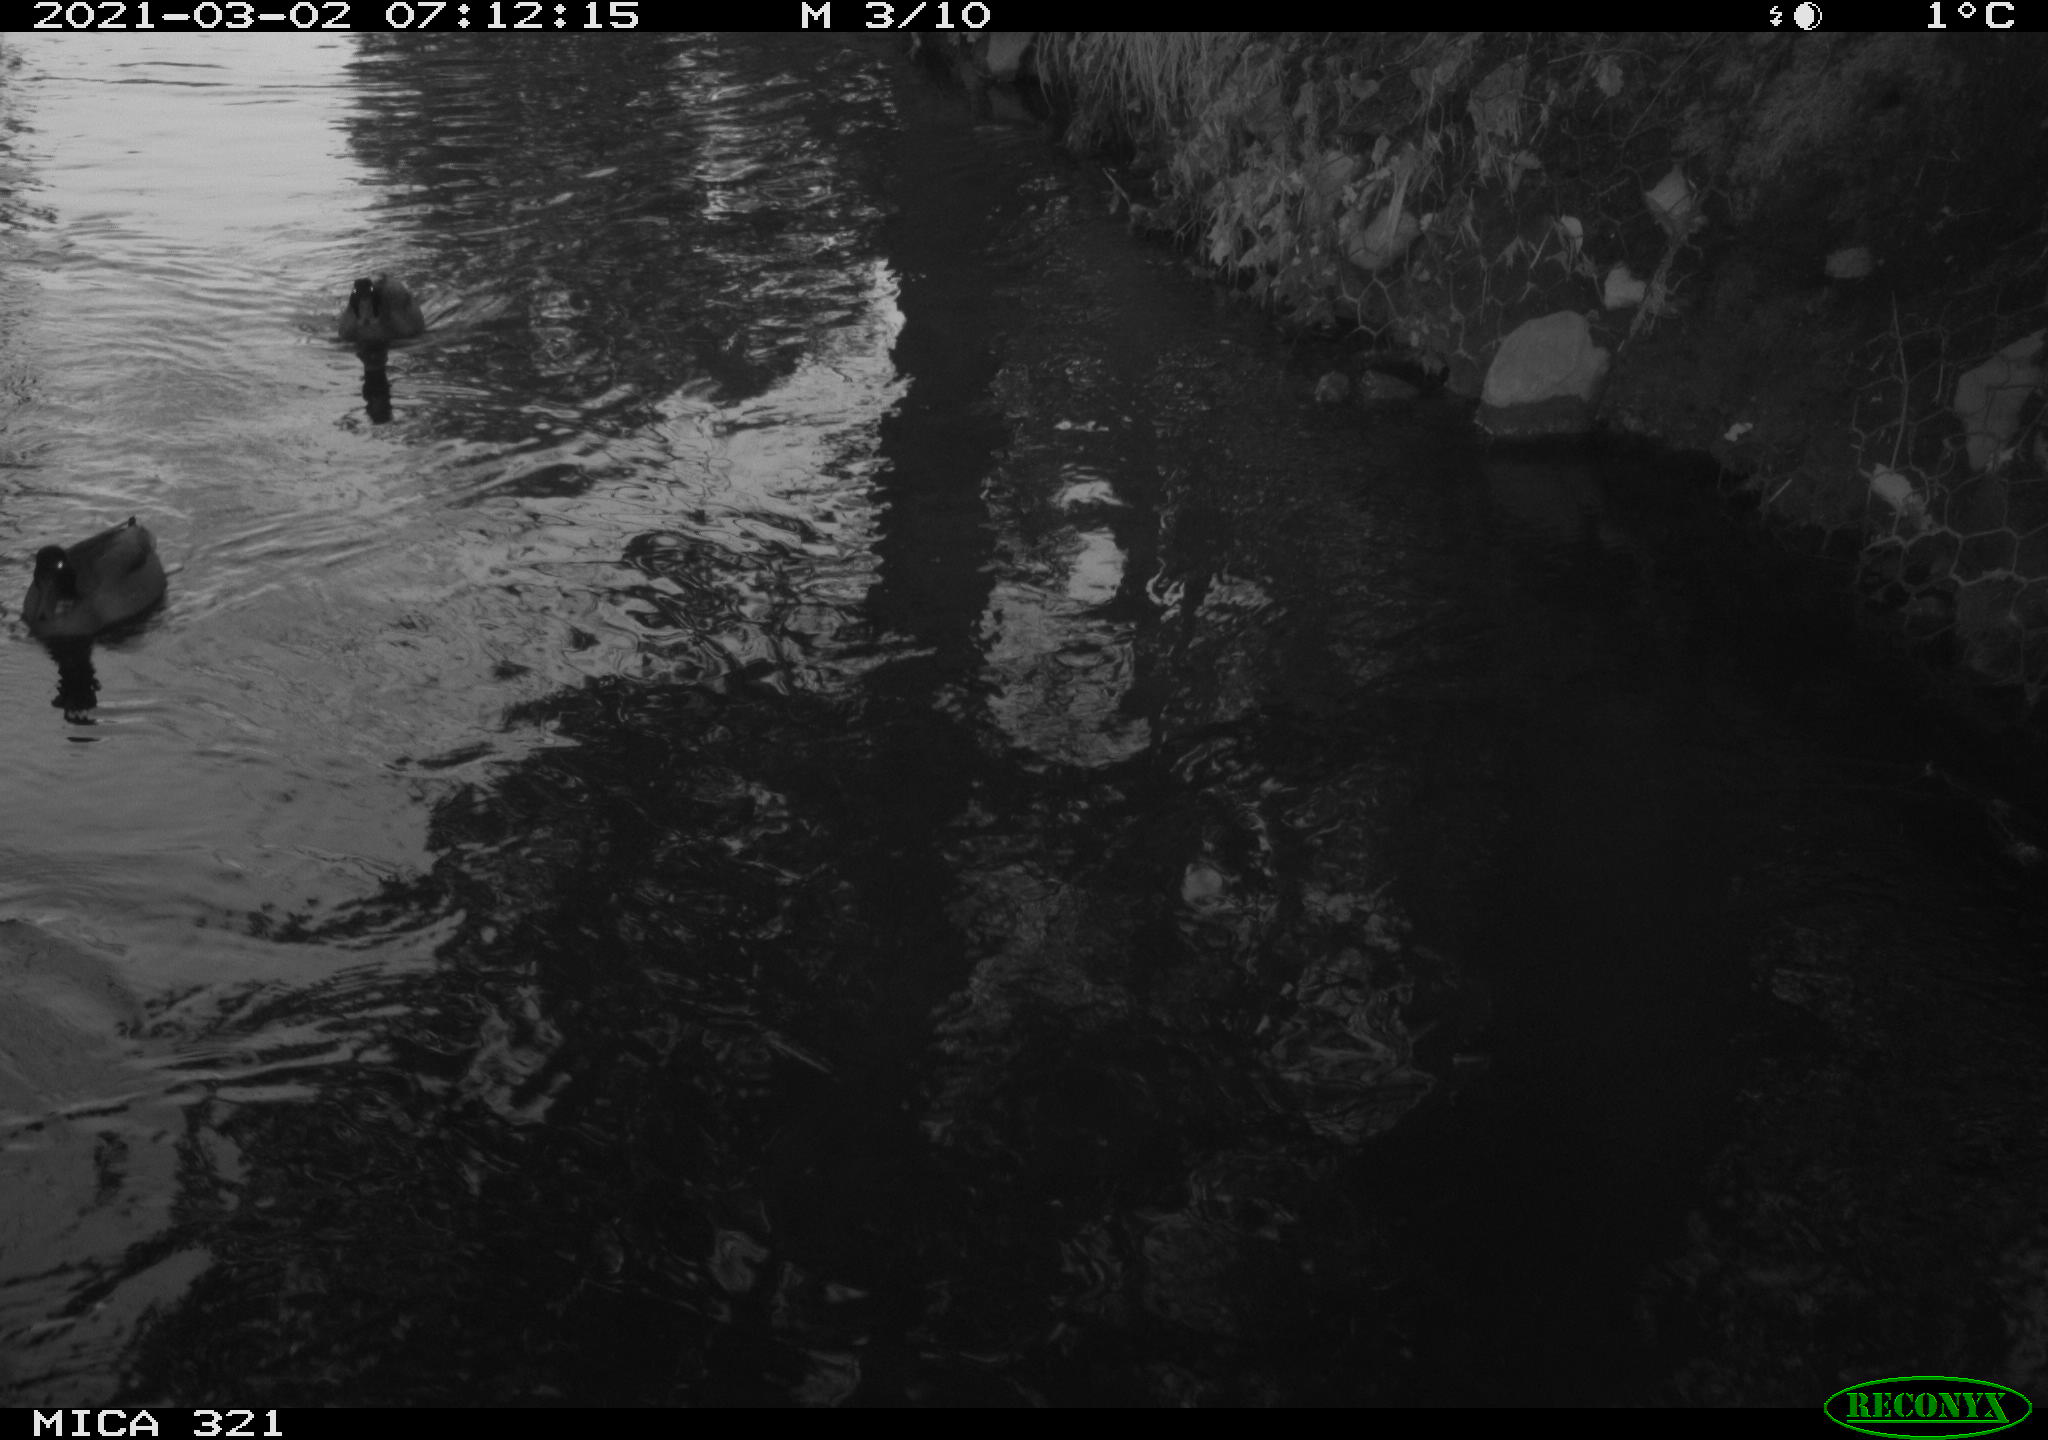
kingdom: Animalia
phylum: Chordata
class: Aves
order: Gruiformes
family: Rallidae
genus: Gallinula
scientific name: Gallinula chloropus
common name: Common moorhen
